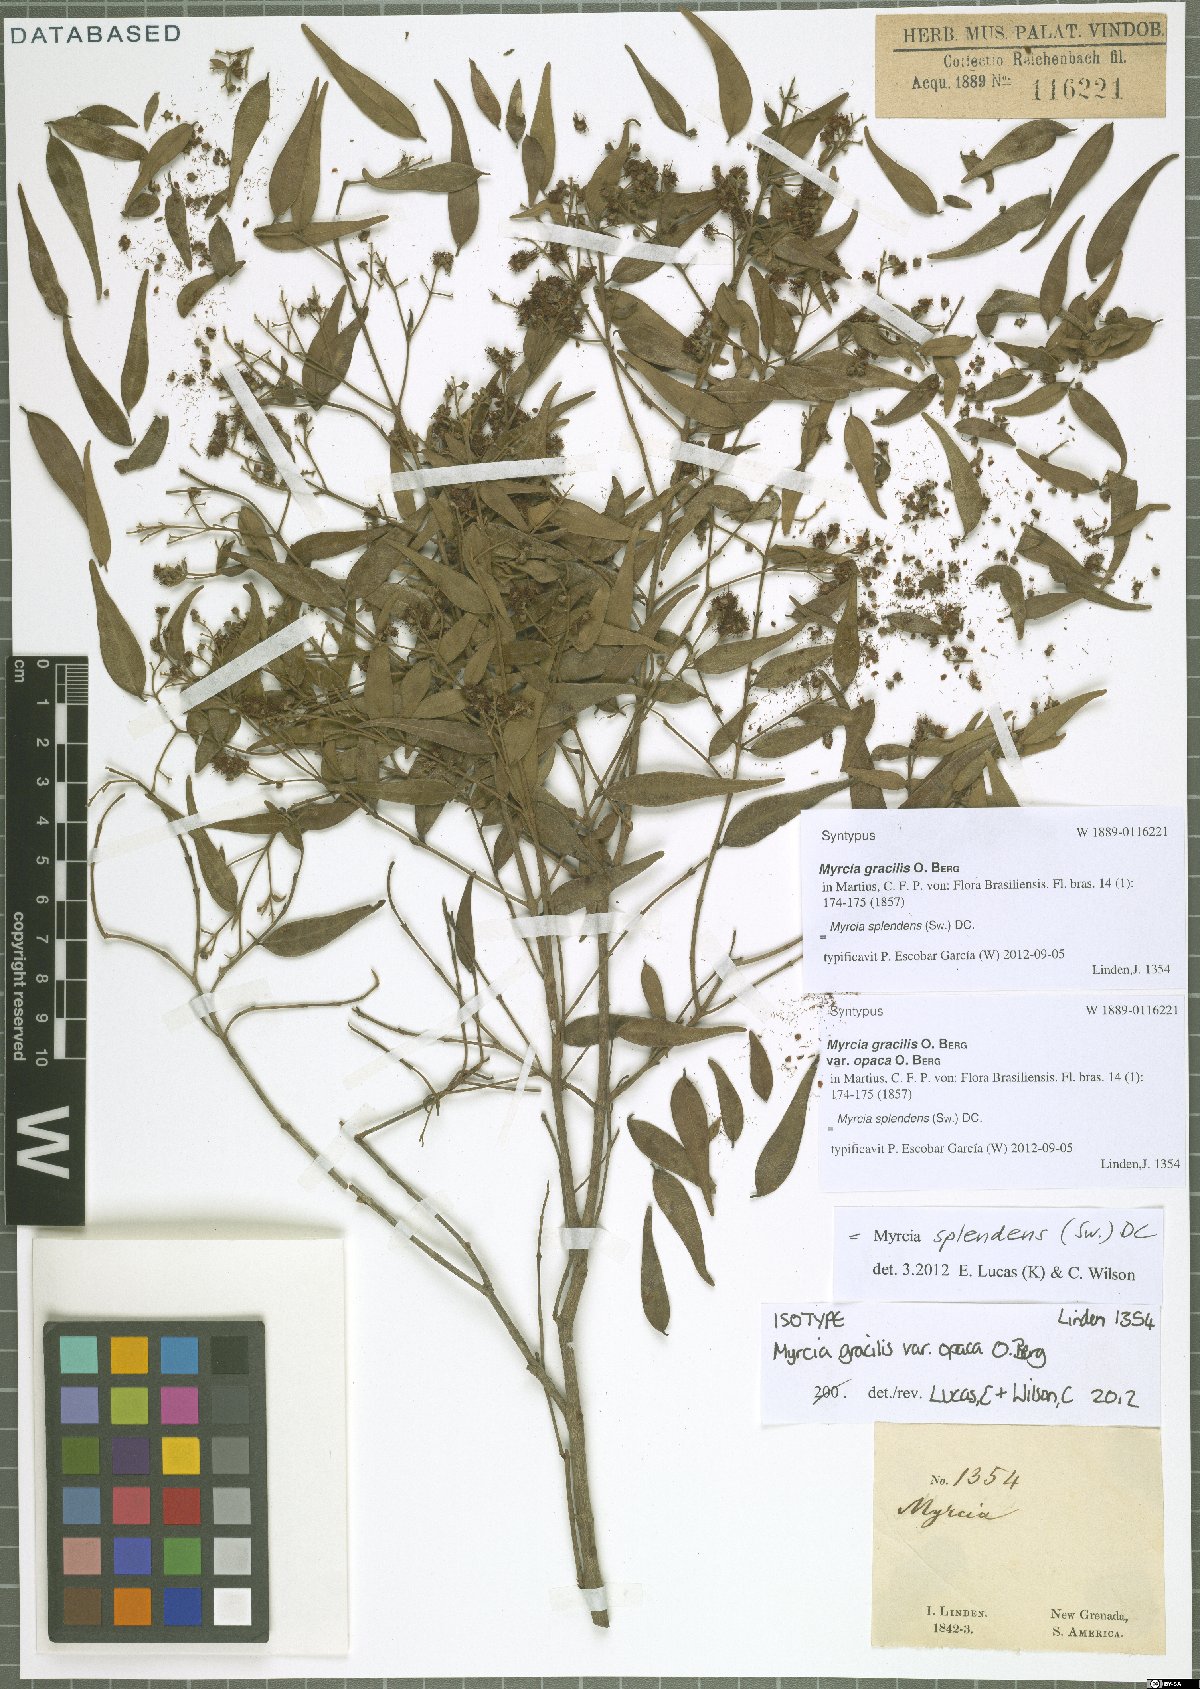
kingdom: Plantae
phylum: Tracheophyta
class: Magnoliopsida
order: Myrtales
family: Myrtaceae
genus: Myrcia
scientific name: Myrcia splendens
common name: Surinam cherry
